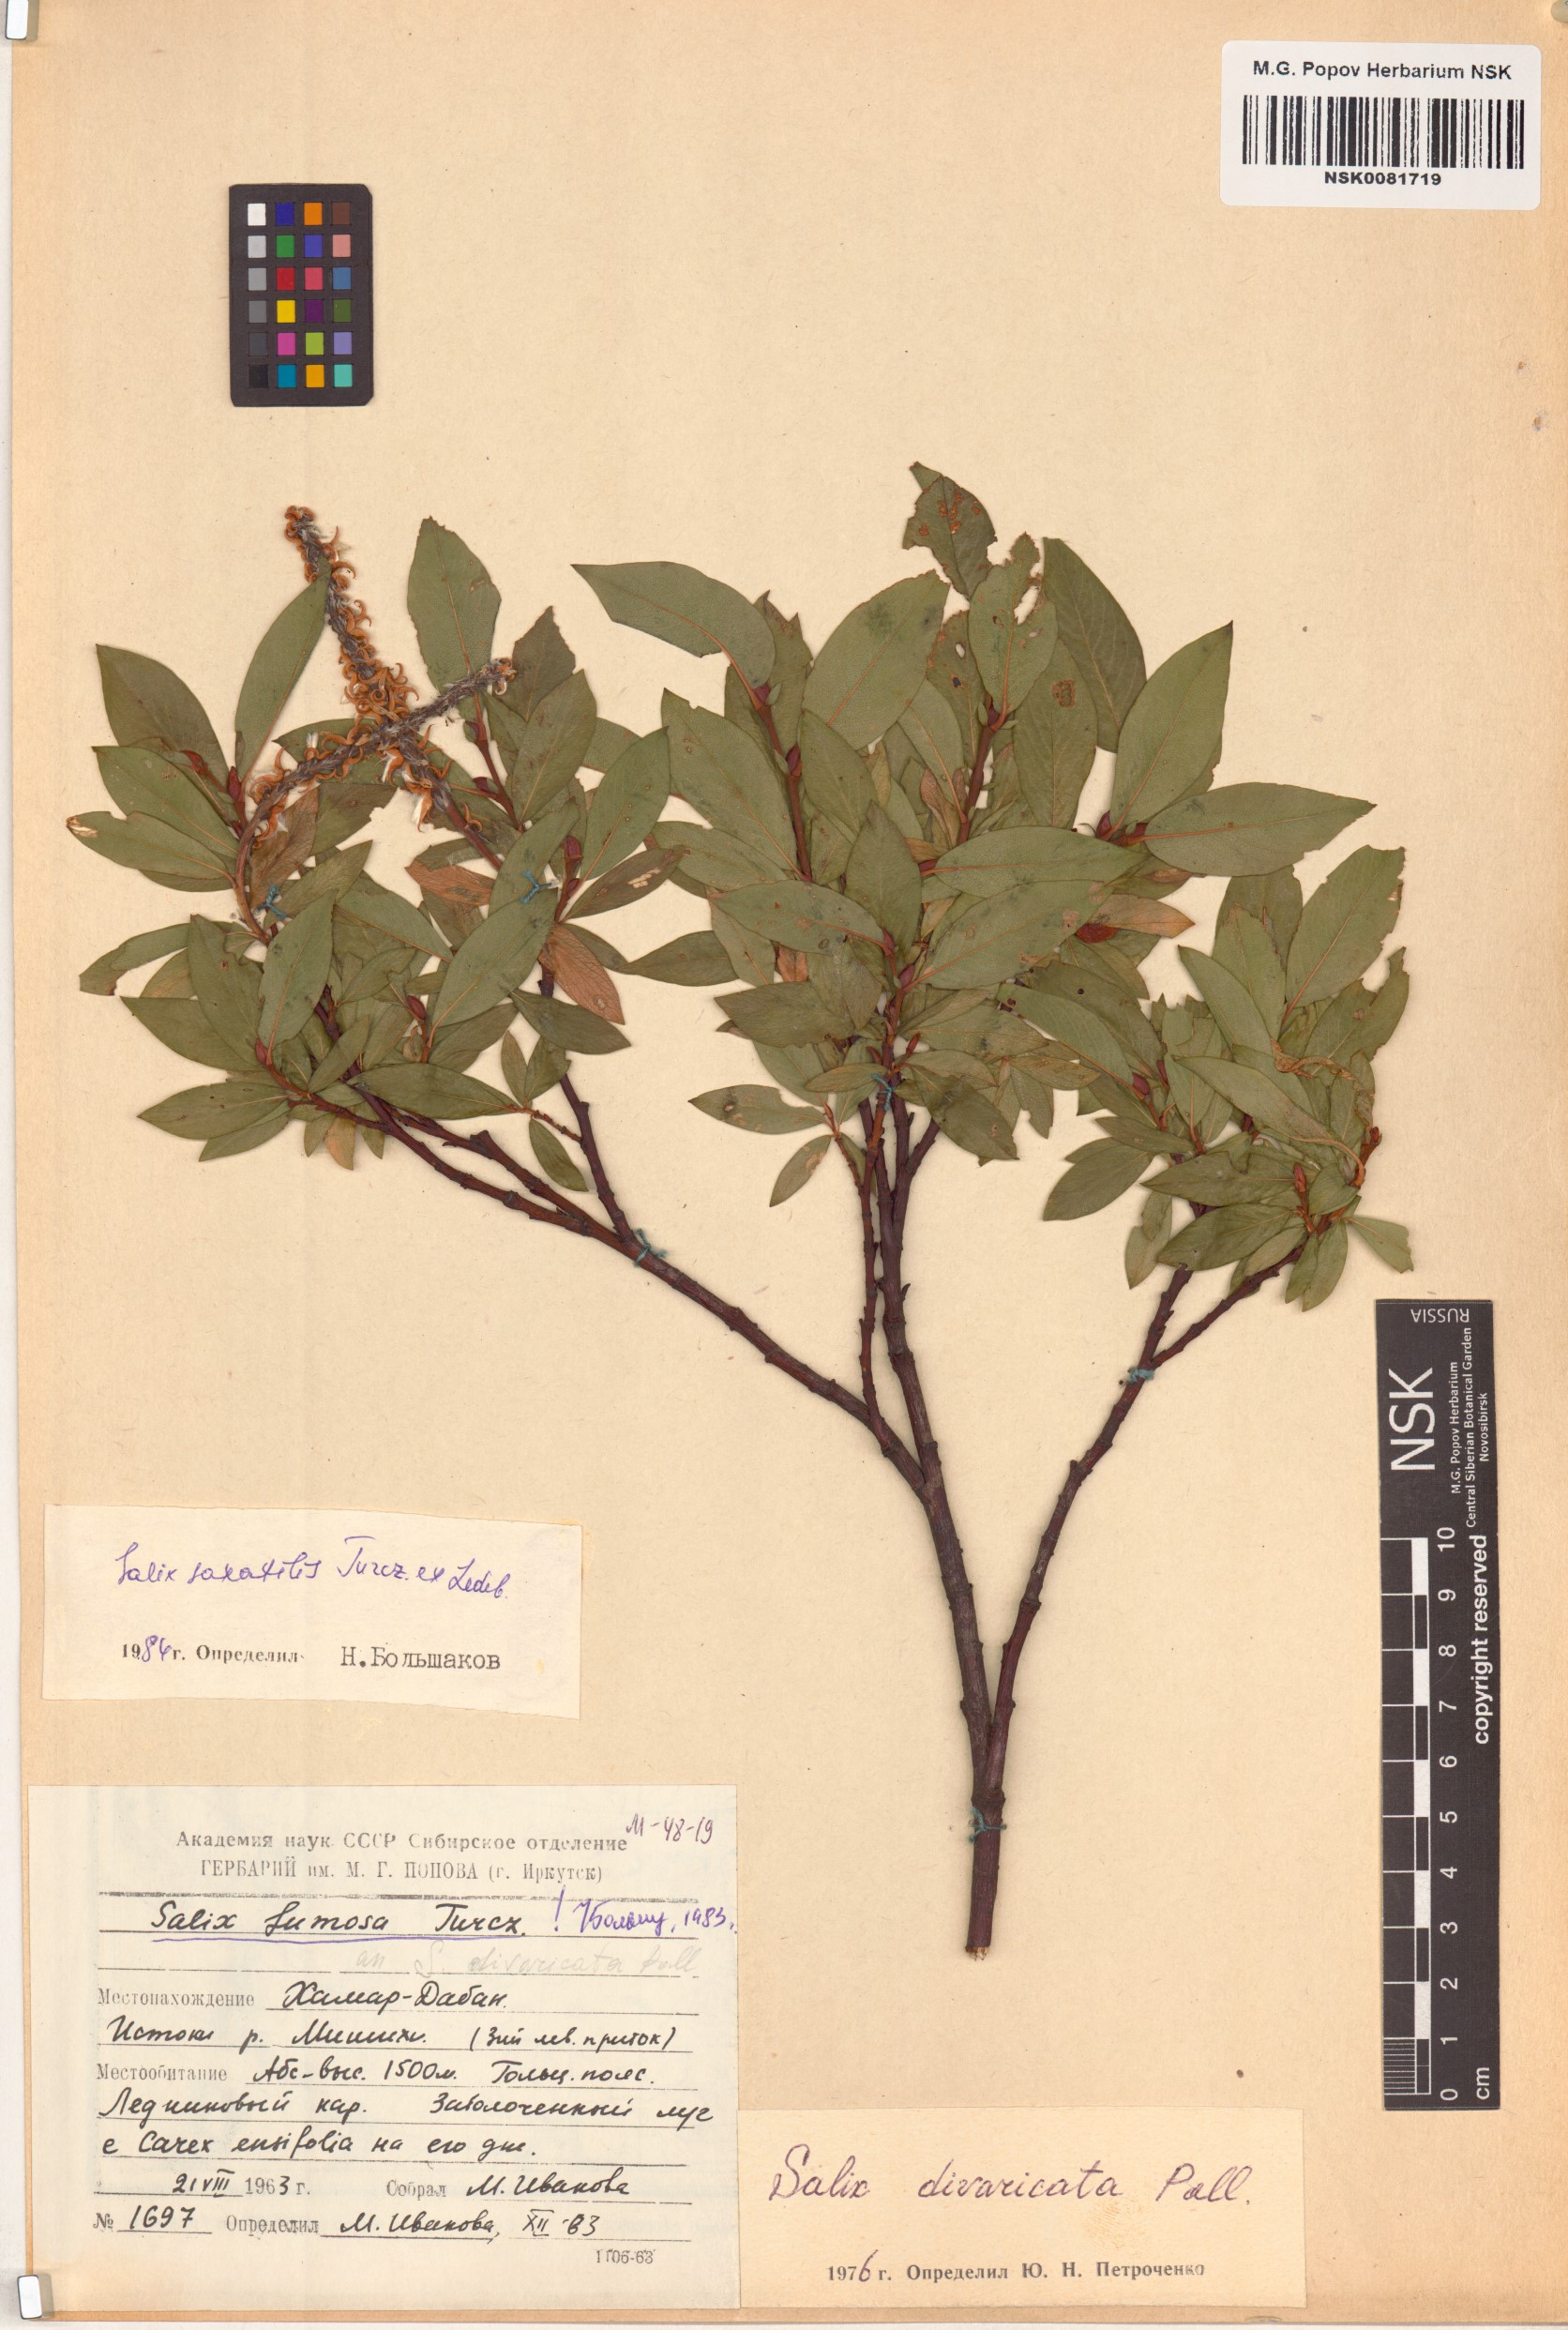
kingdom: Plantae
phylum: Tracheophyta
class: Magnoliopsida
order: Malpighiales
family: Salicaceae
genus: Salix
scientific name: Salix saxatilis
